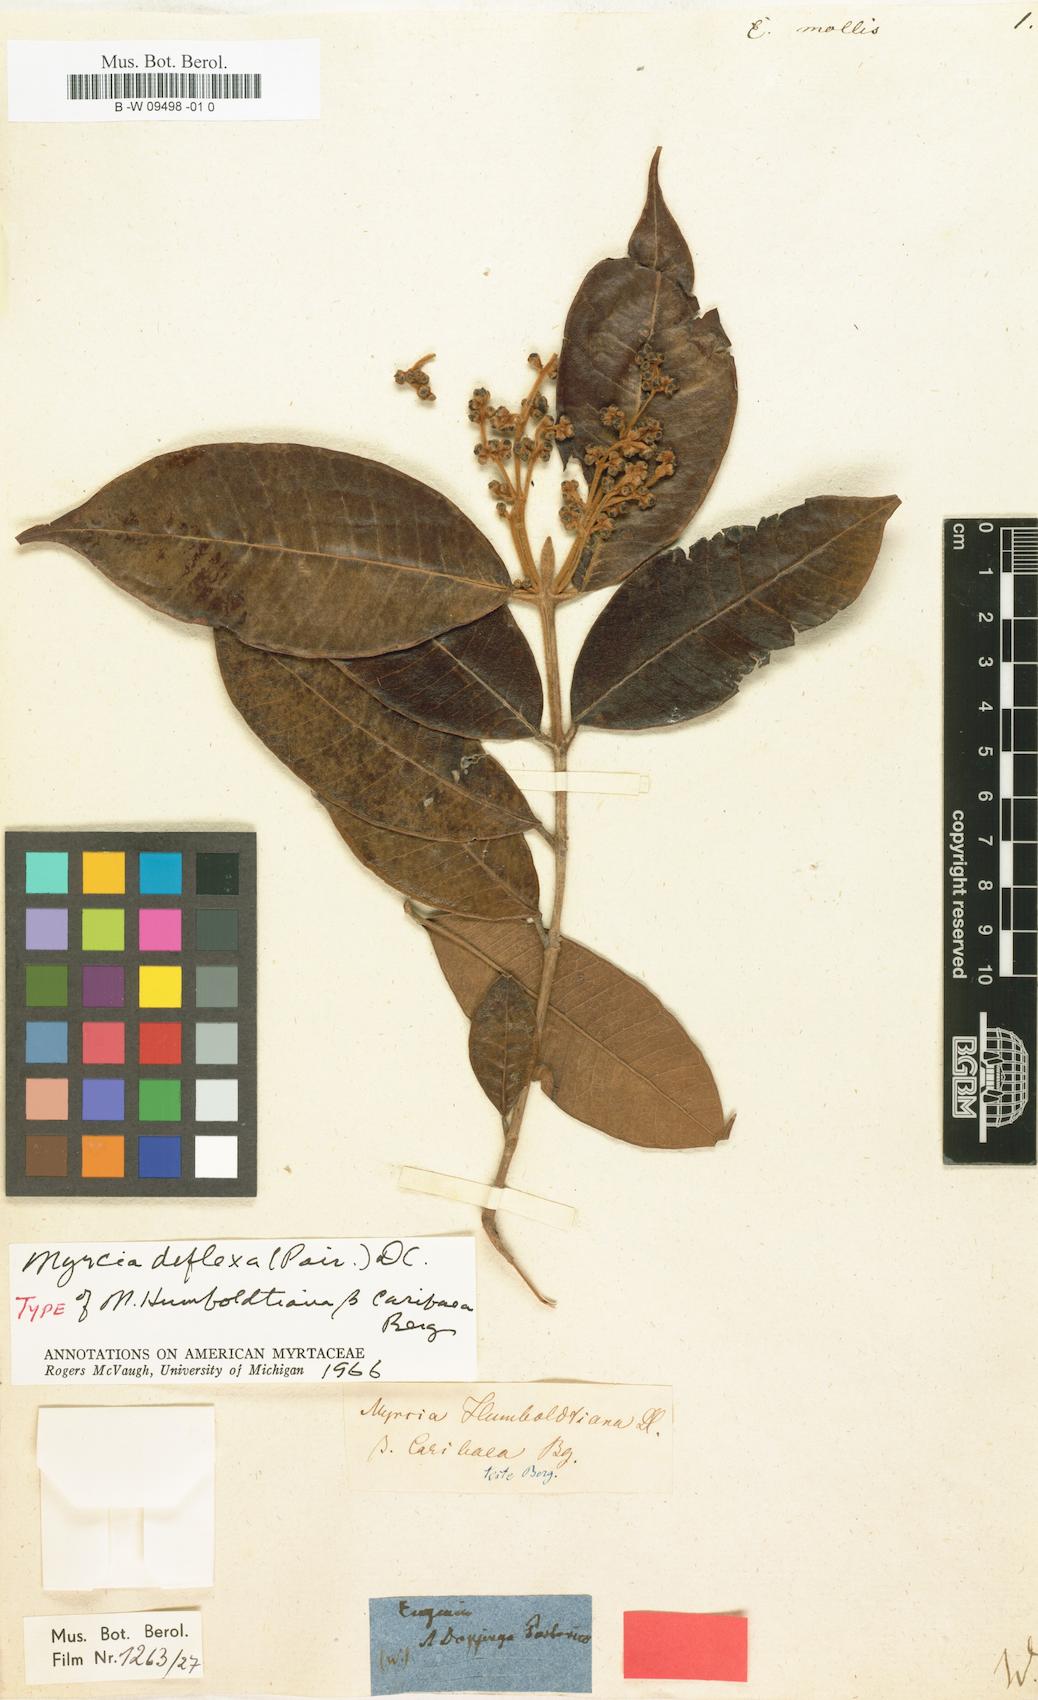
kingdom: Plantae
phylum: Tracheophyta
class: Magnoliopsida
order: Myrtales
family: Myrtaceae
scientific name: Myrtaceae
